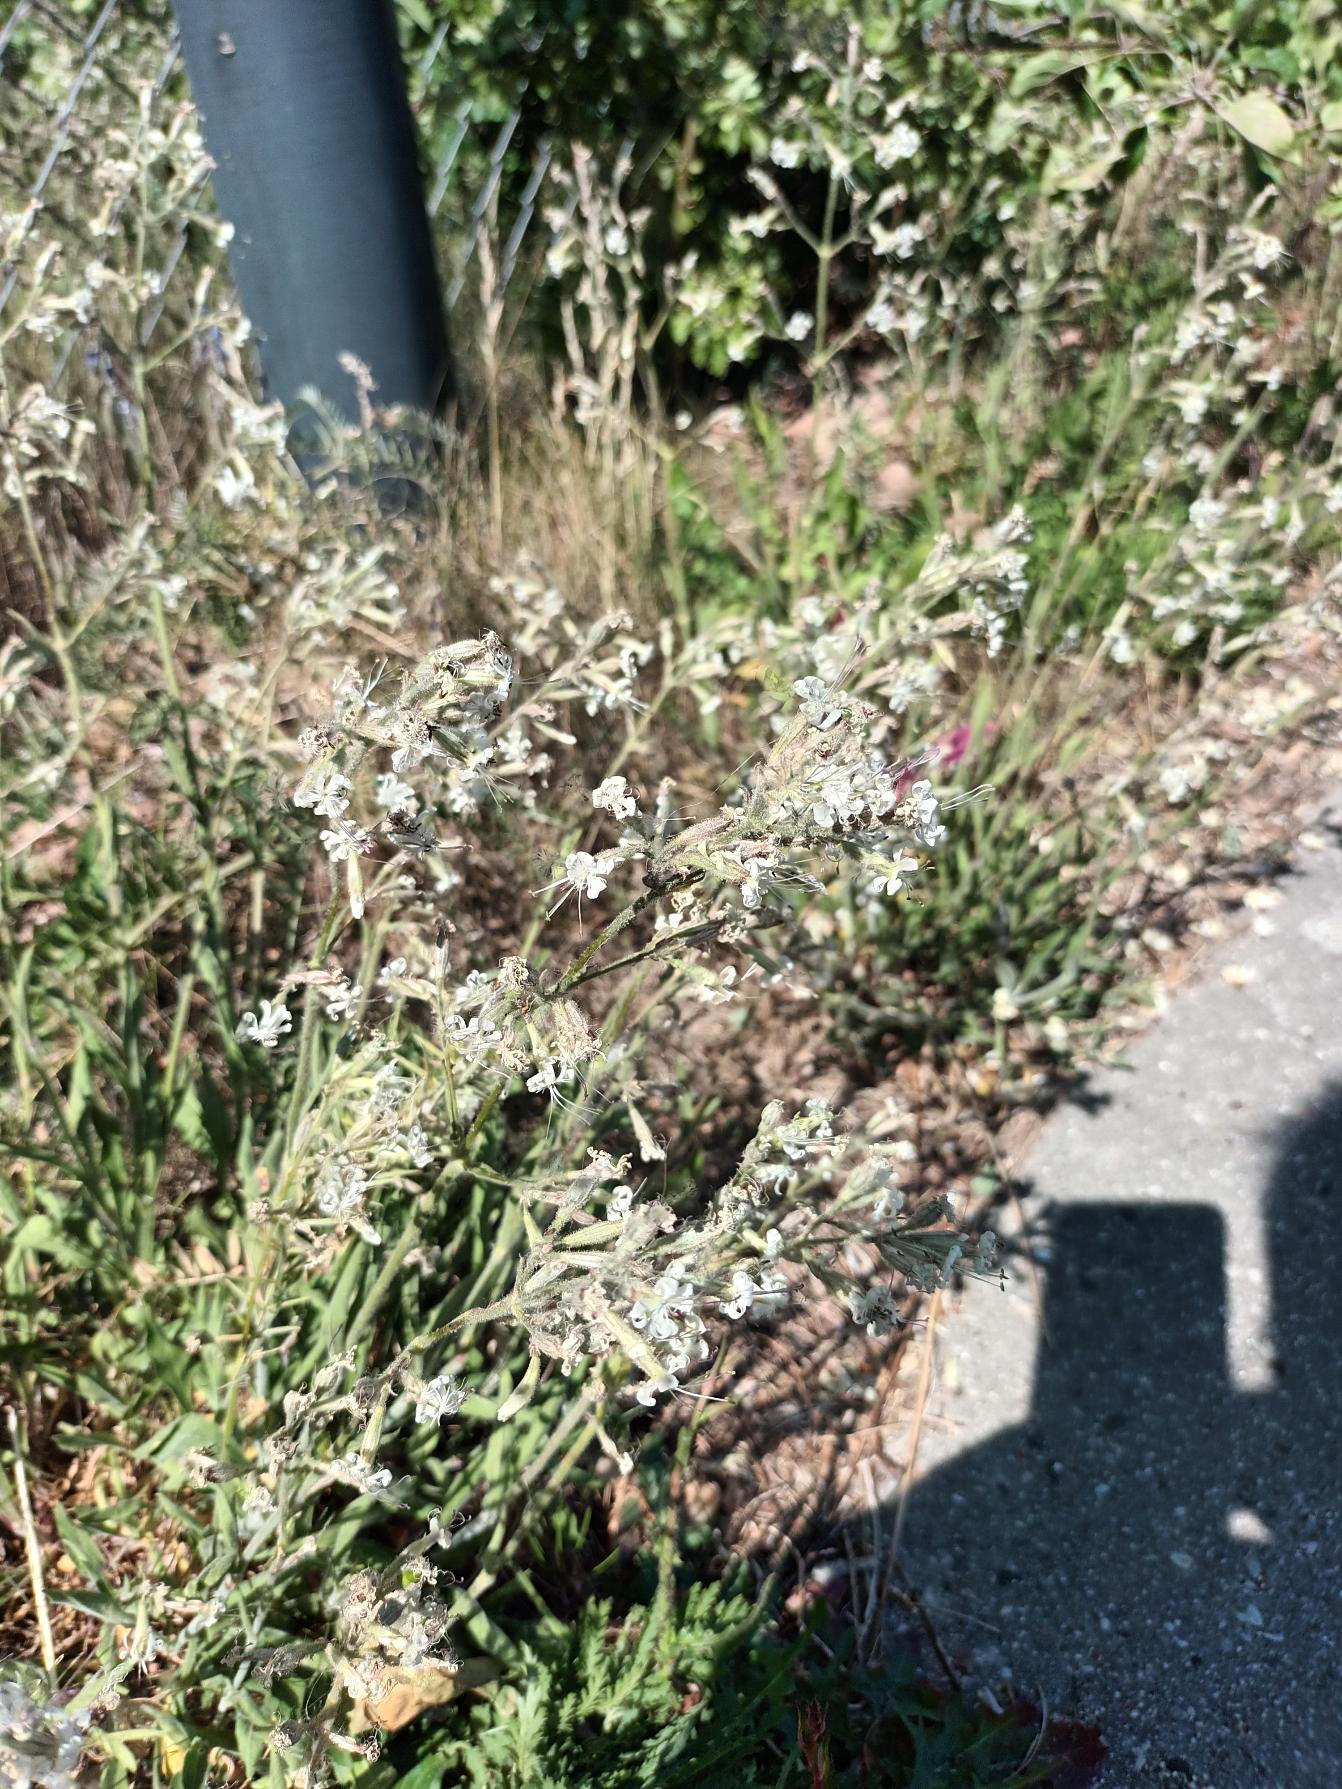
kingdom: Plantae
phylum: Tracheophyta
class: Magnoliopsida
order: Caryophyllales
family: Caryophyllaceae
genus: Silene
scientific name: Silene nutans
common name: Nikkende limurt
